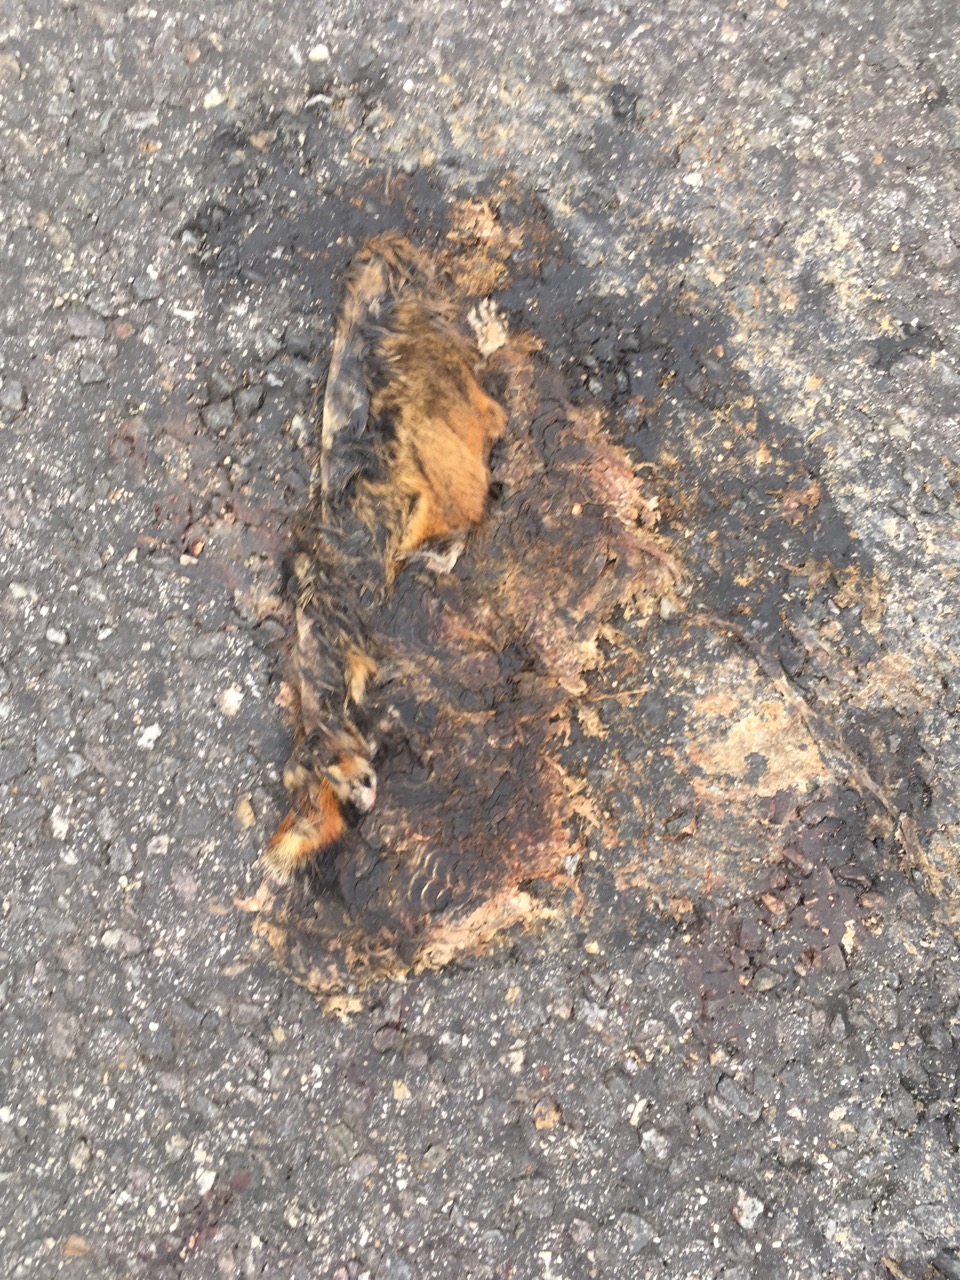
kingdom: Animalia
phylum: Chordata
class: Mammalia
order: Rodentia
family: Cricetidae
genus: Cricetus
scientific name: Cricetus cricetus
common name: Common hamster
